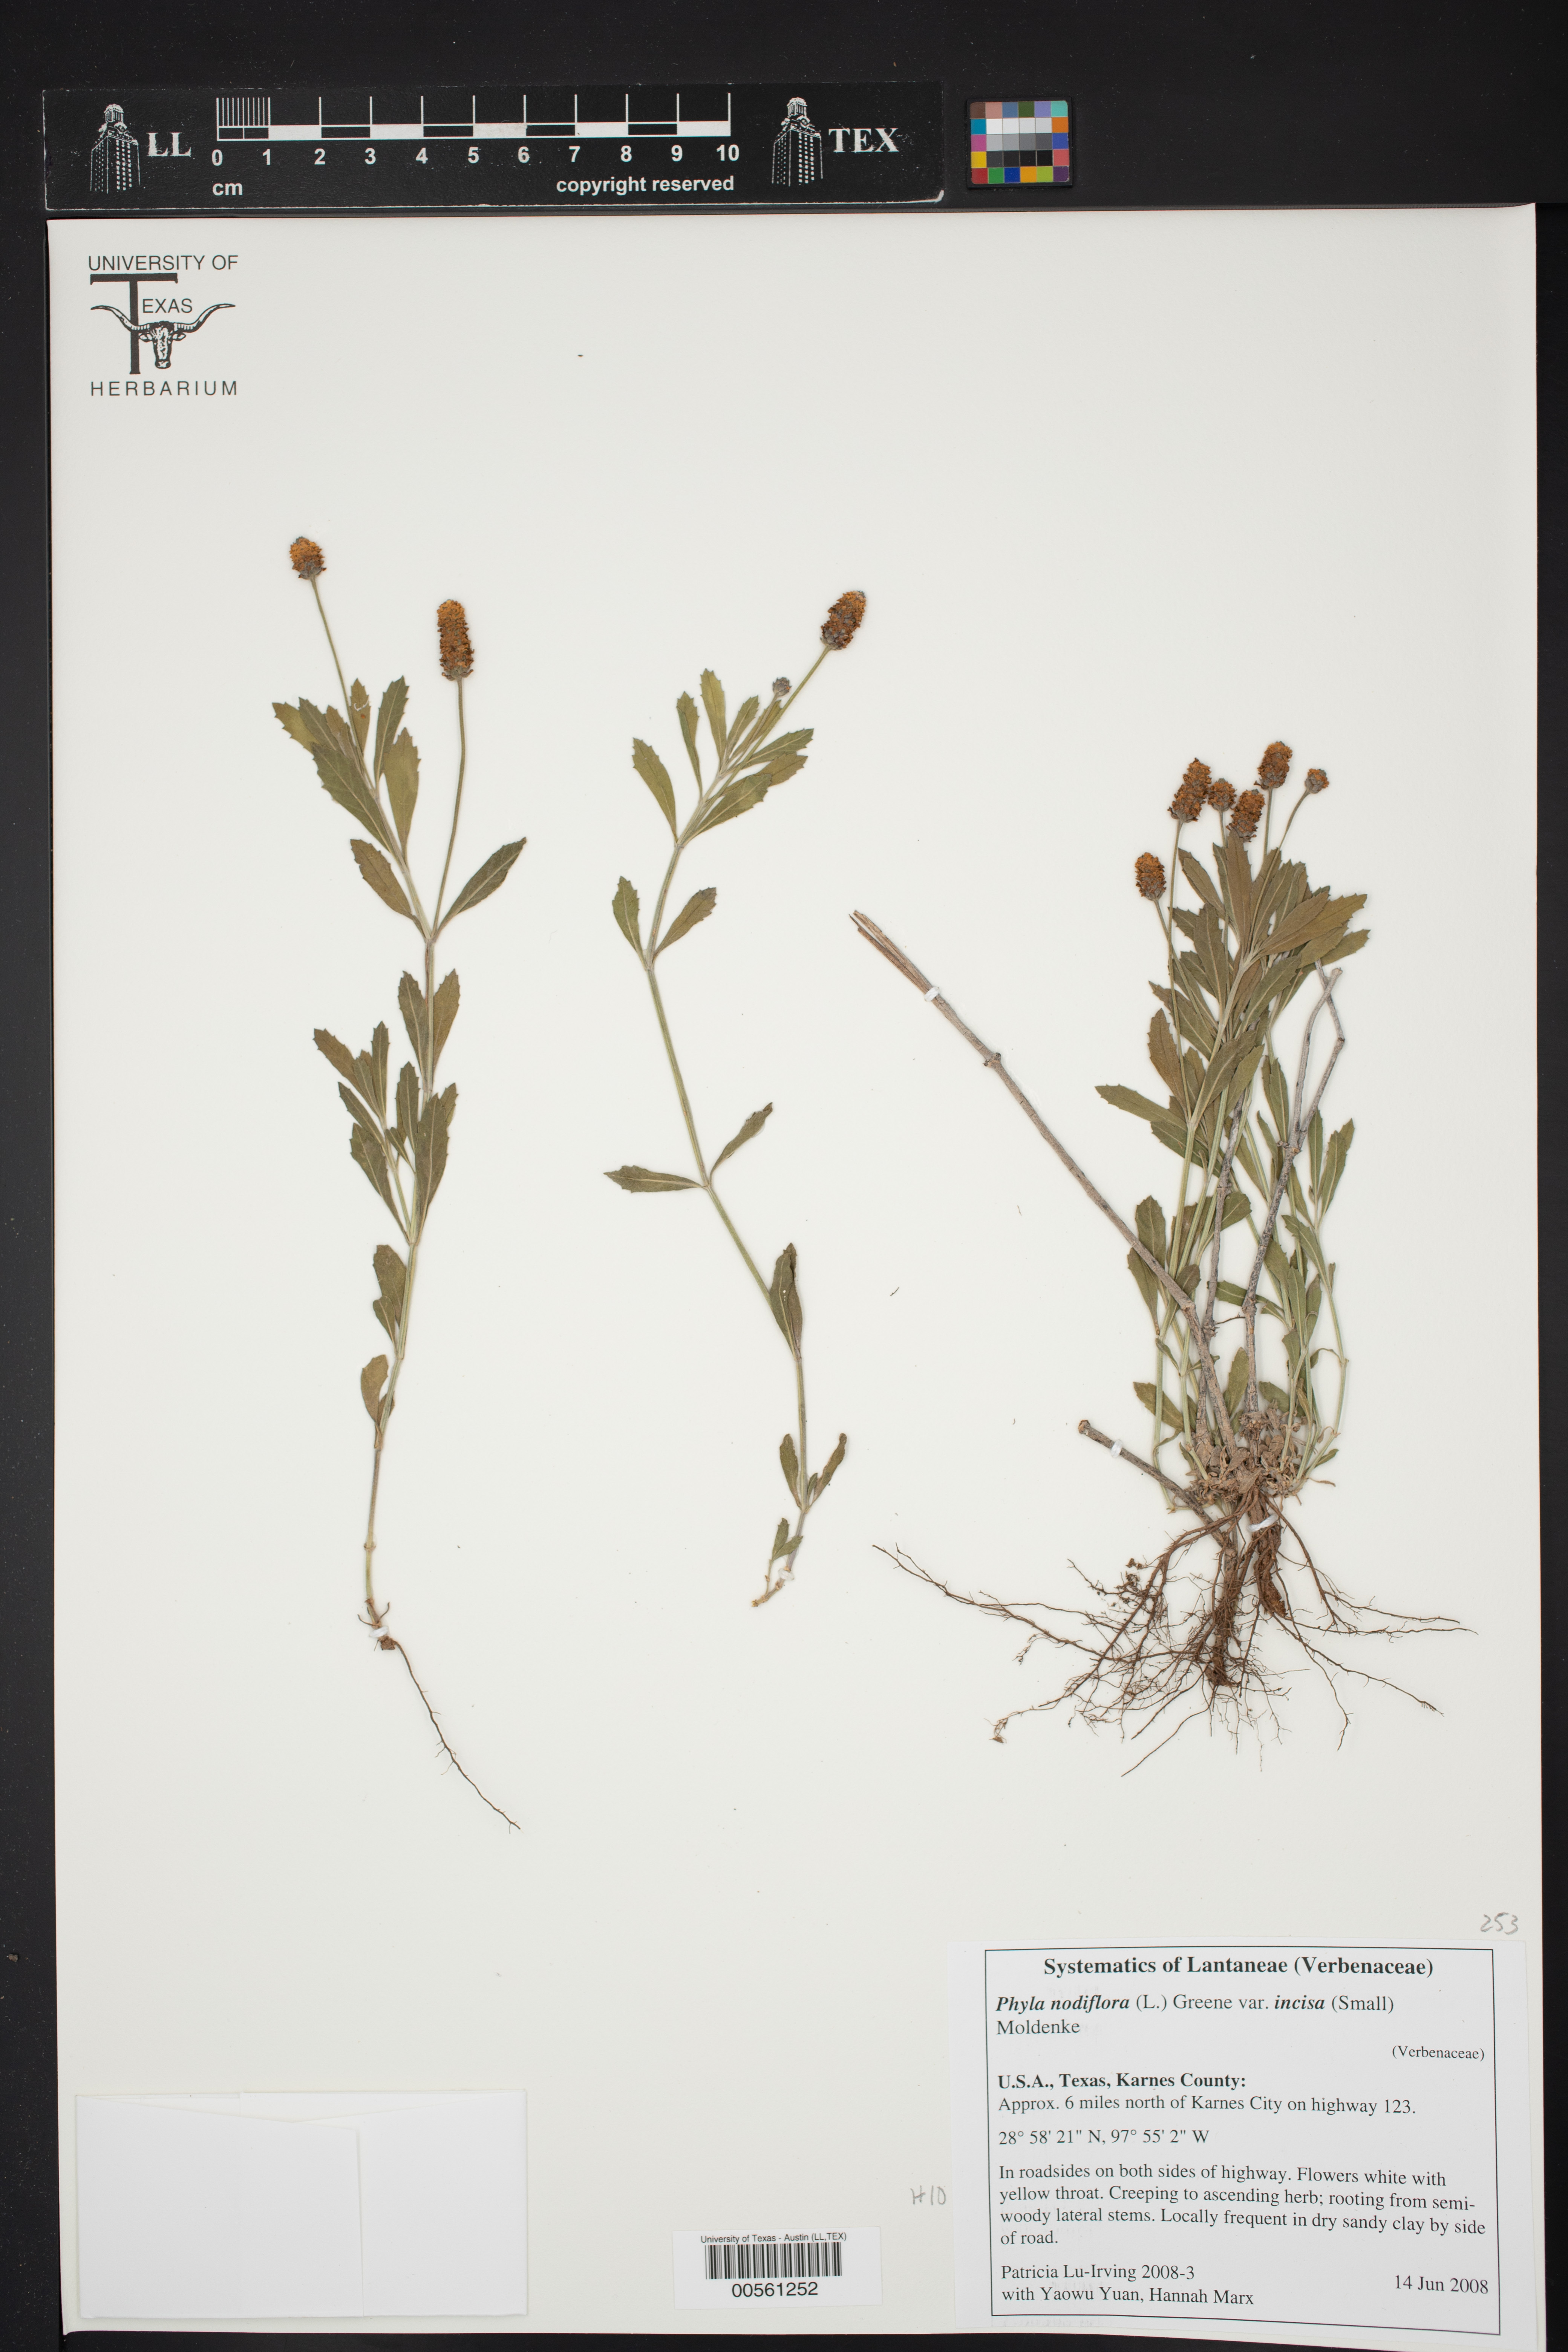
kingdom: Plantae
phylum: Tracheophyta
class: Magnoliopsida
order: Lamiales
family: Verbenaceae
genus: Phyla
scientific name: Phyla nodiflora
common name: Frogfruit
